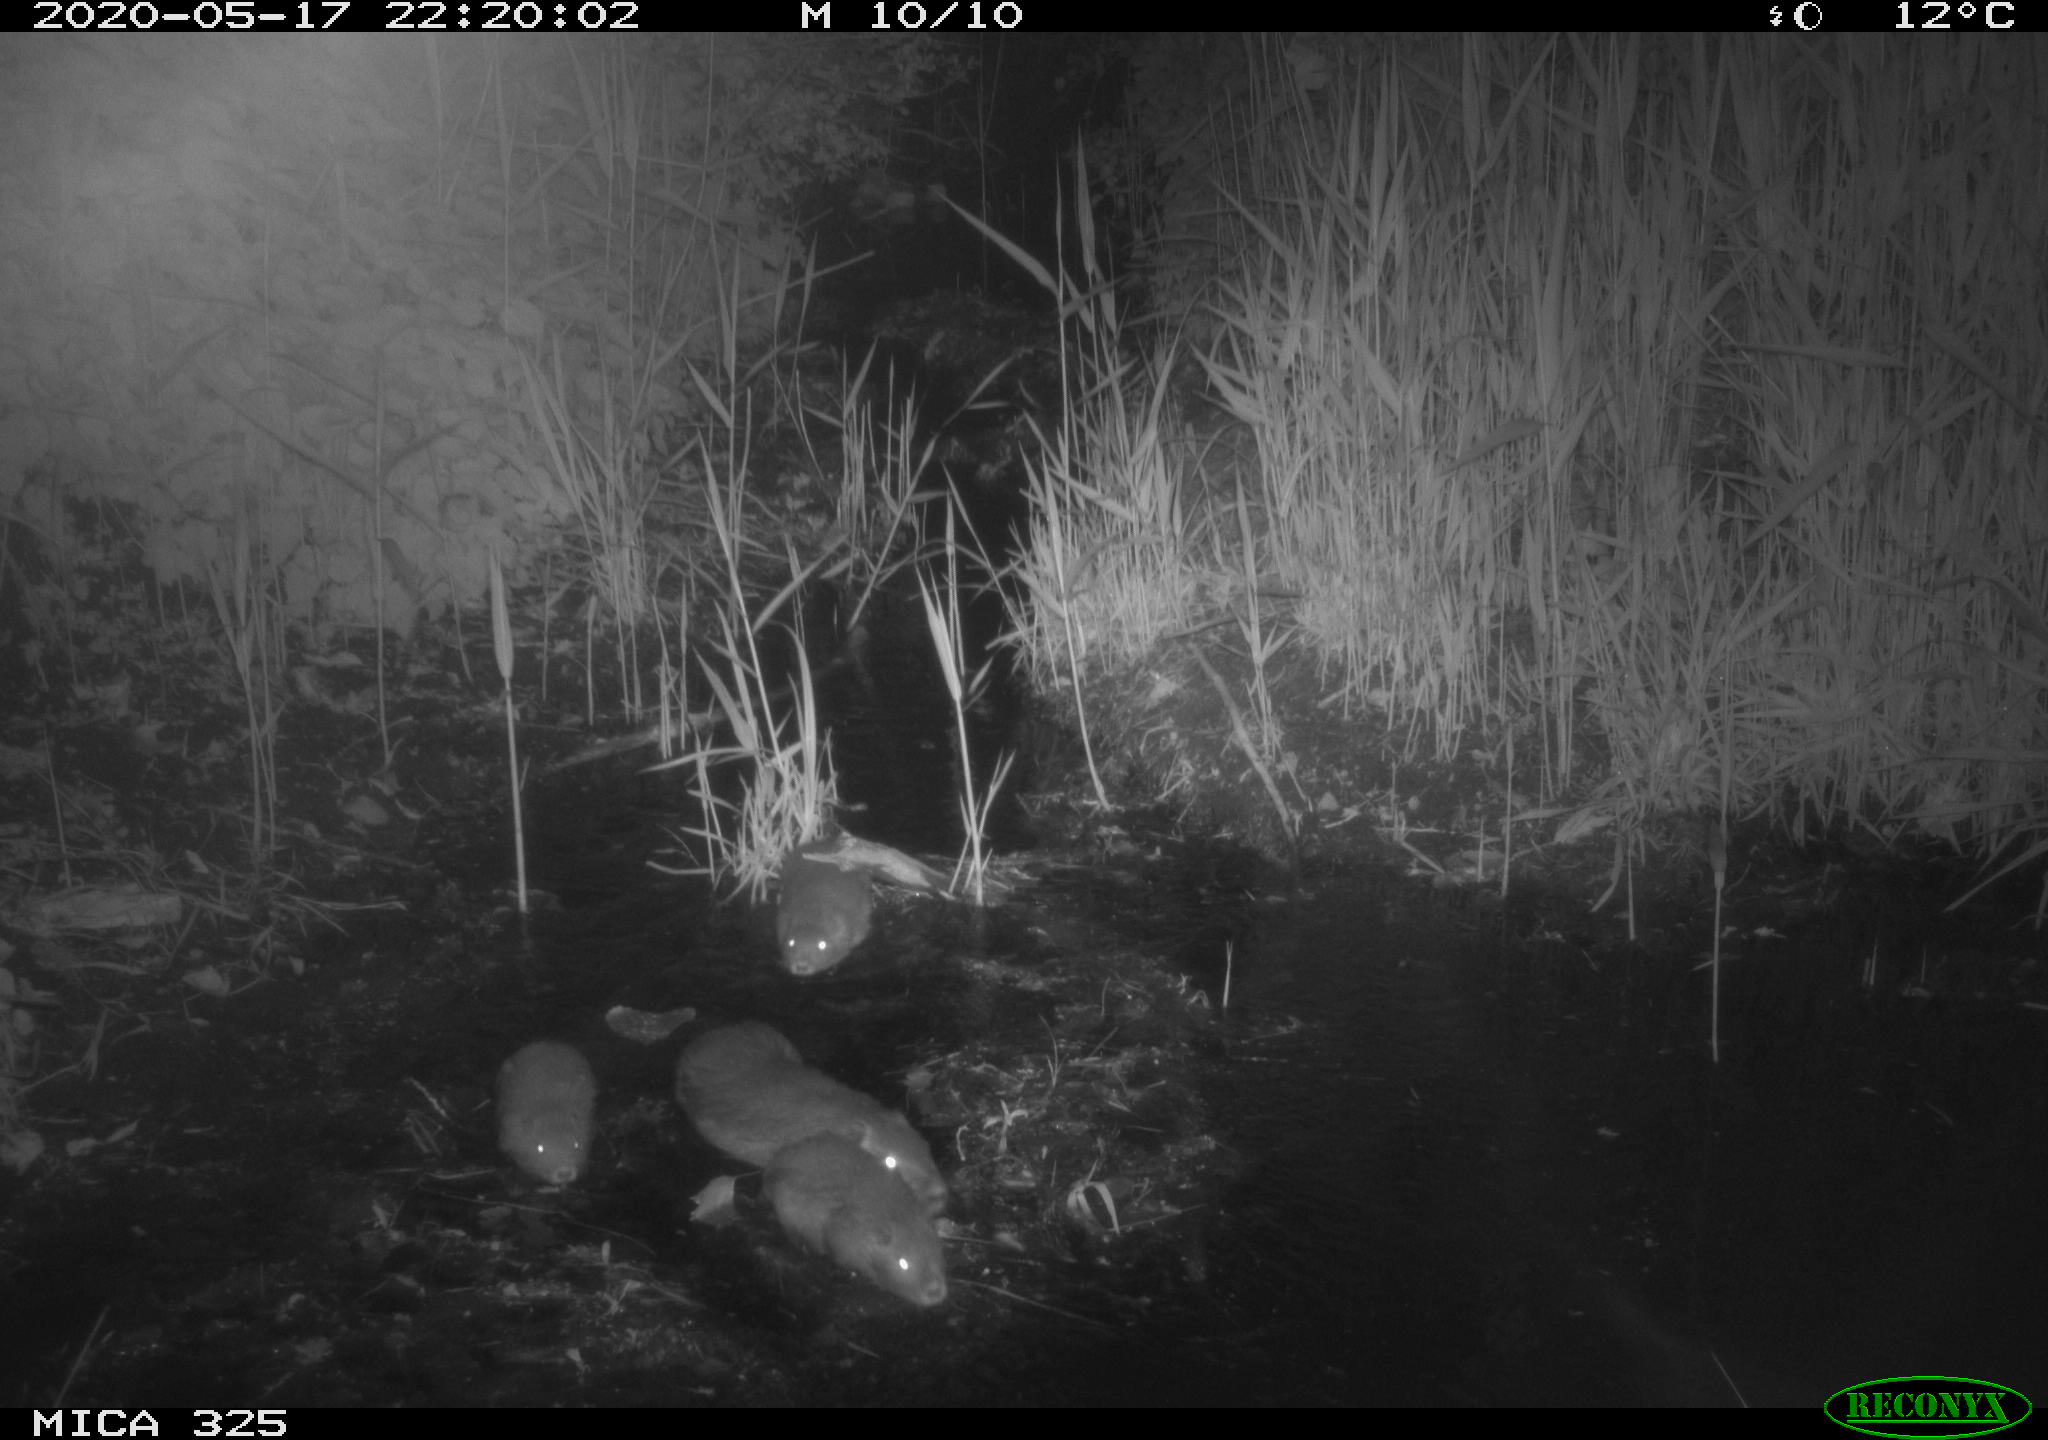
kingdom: Animalia
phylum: Chordata
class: Mammalia
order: Rodentia
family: Myocastoridae
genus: Myocastor
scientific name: Myocastor coypus
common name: Coypu
